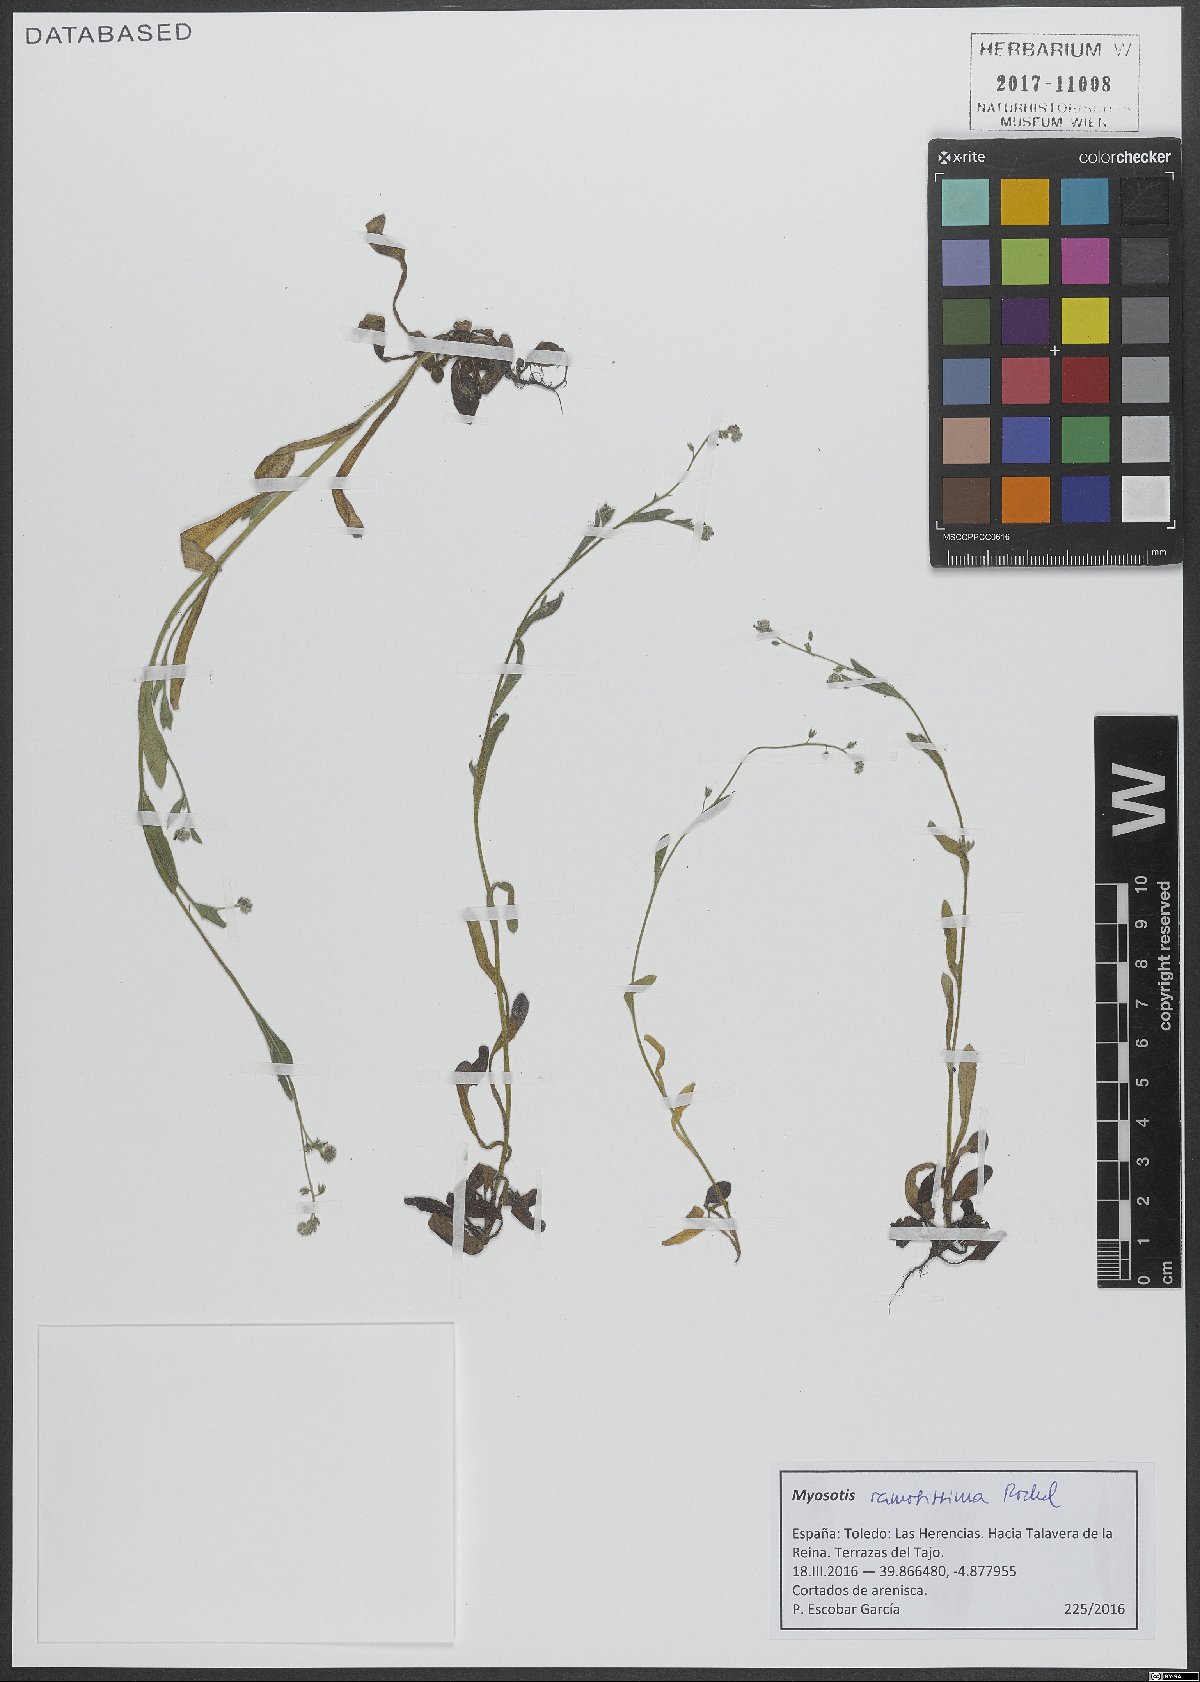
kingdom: Plantae
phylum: Tracheophyta
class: Magnoliopsida
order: Boraginales
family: Boraginaceae
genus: Myosotis
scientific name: Myosotis ramosissima
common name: Early forget-me-not
